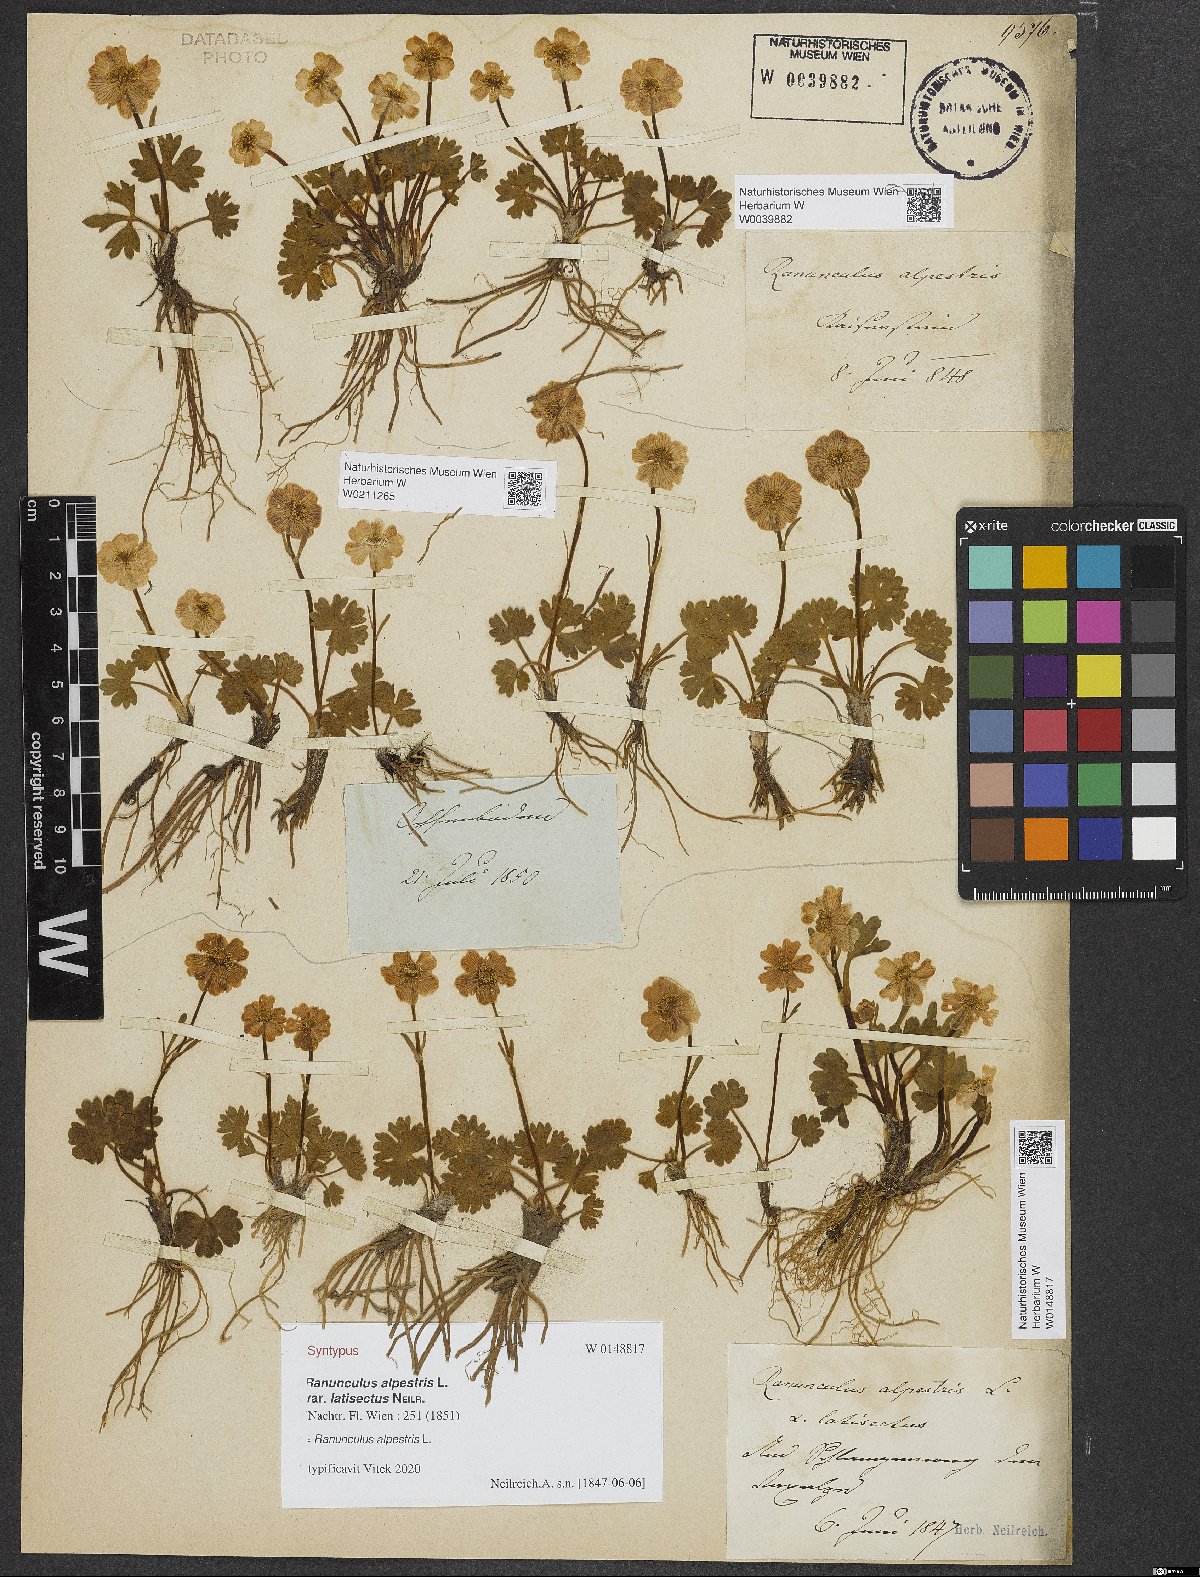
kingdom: Plantae
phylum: Tracheophyta
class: Magnoliopsida
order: Ranunculales
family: Ranunculaceae
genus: Ranunculus
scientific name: Ranunculus alpestris
